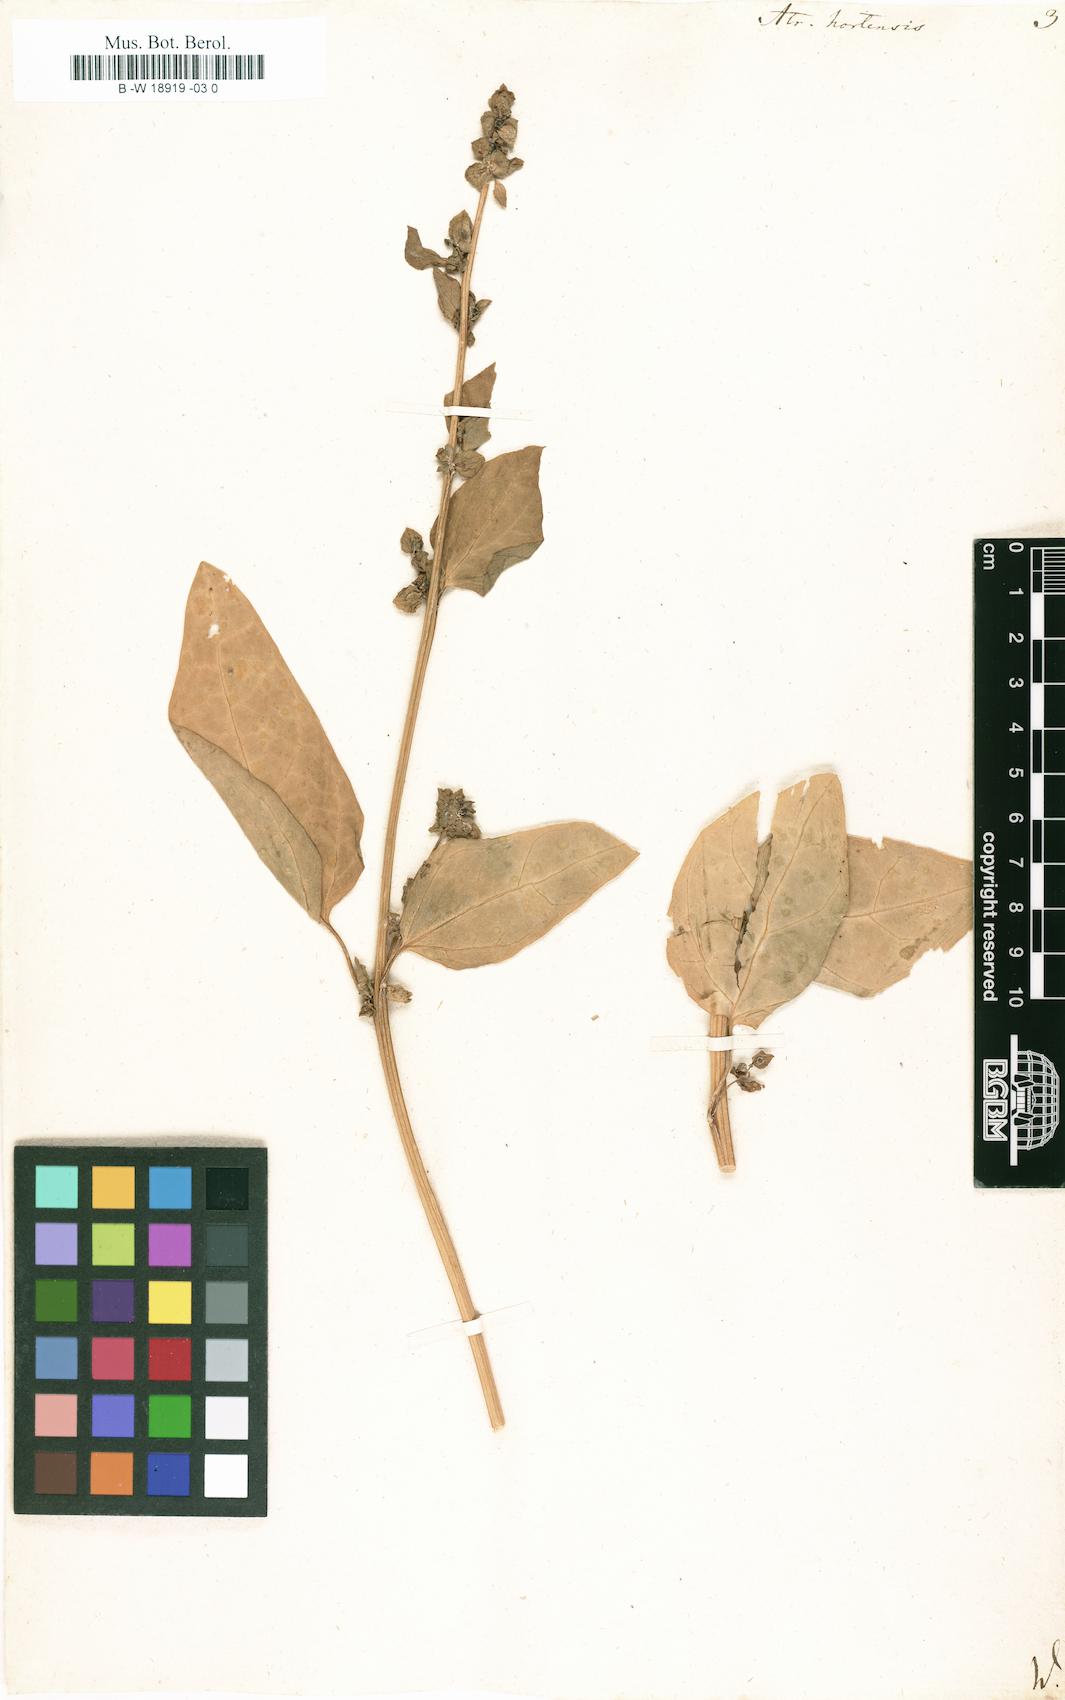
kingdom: Plantae
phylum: Tracheophyta
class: Magnoliopsida
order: Caryophyllales
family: Amaranthaceae
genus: Atriplex
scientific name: Atriplex hortensis
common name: Garden orache
